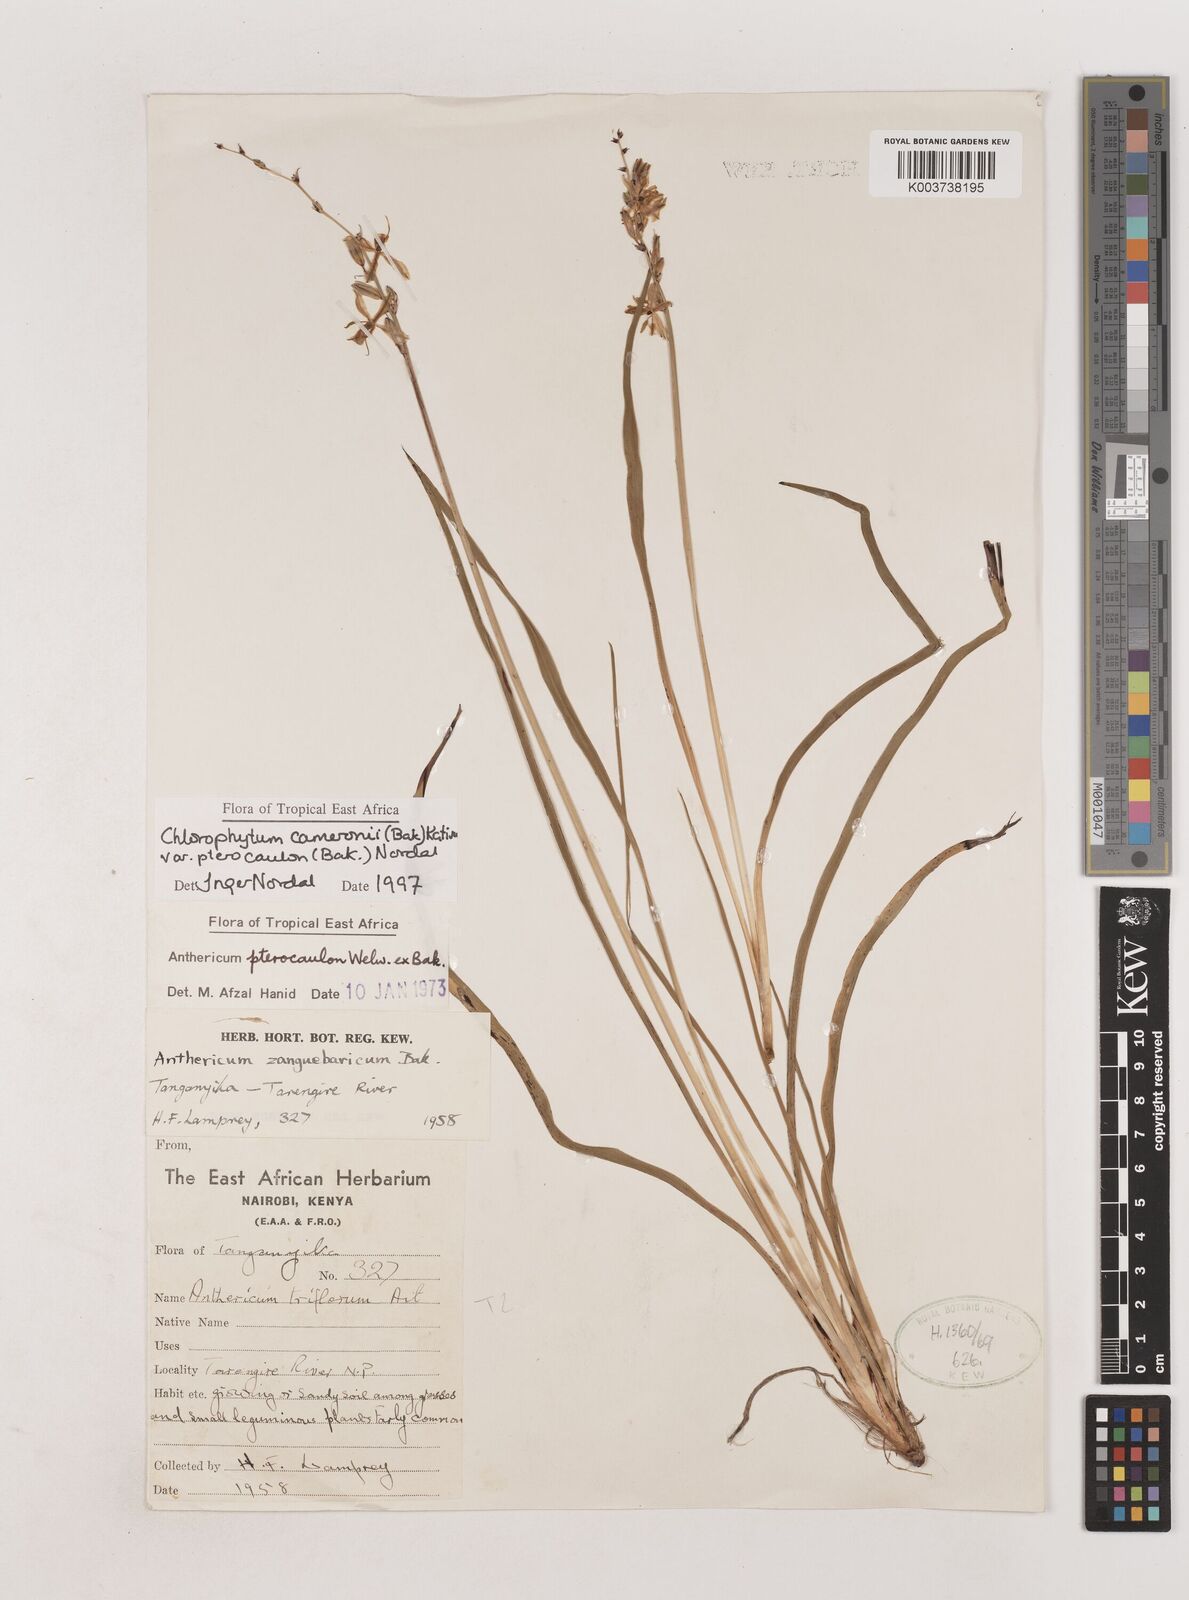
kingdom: Plantae
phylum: Tracheophyta
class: Liliopsida
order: Asparagales
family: Asparagaceae
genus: Chlorophytum
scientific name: Chlorophytum cameronii
